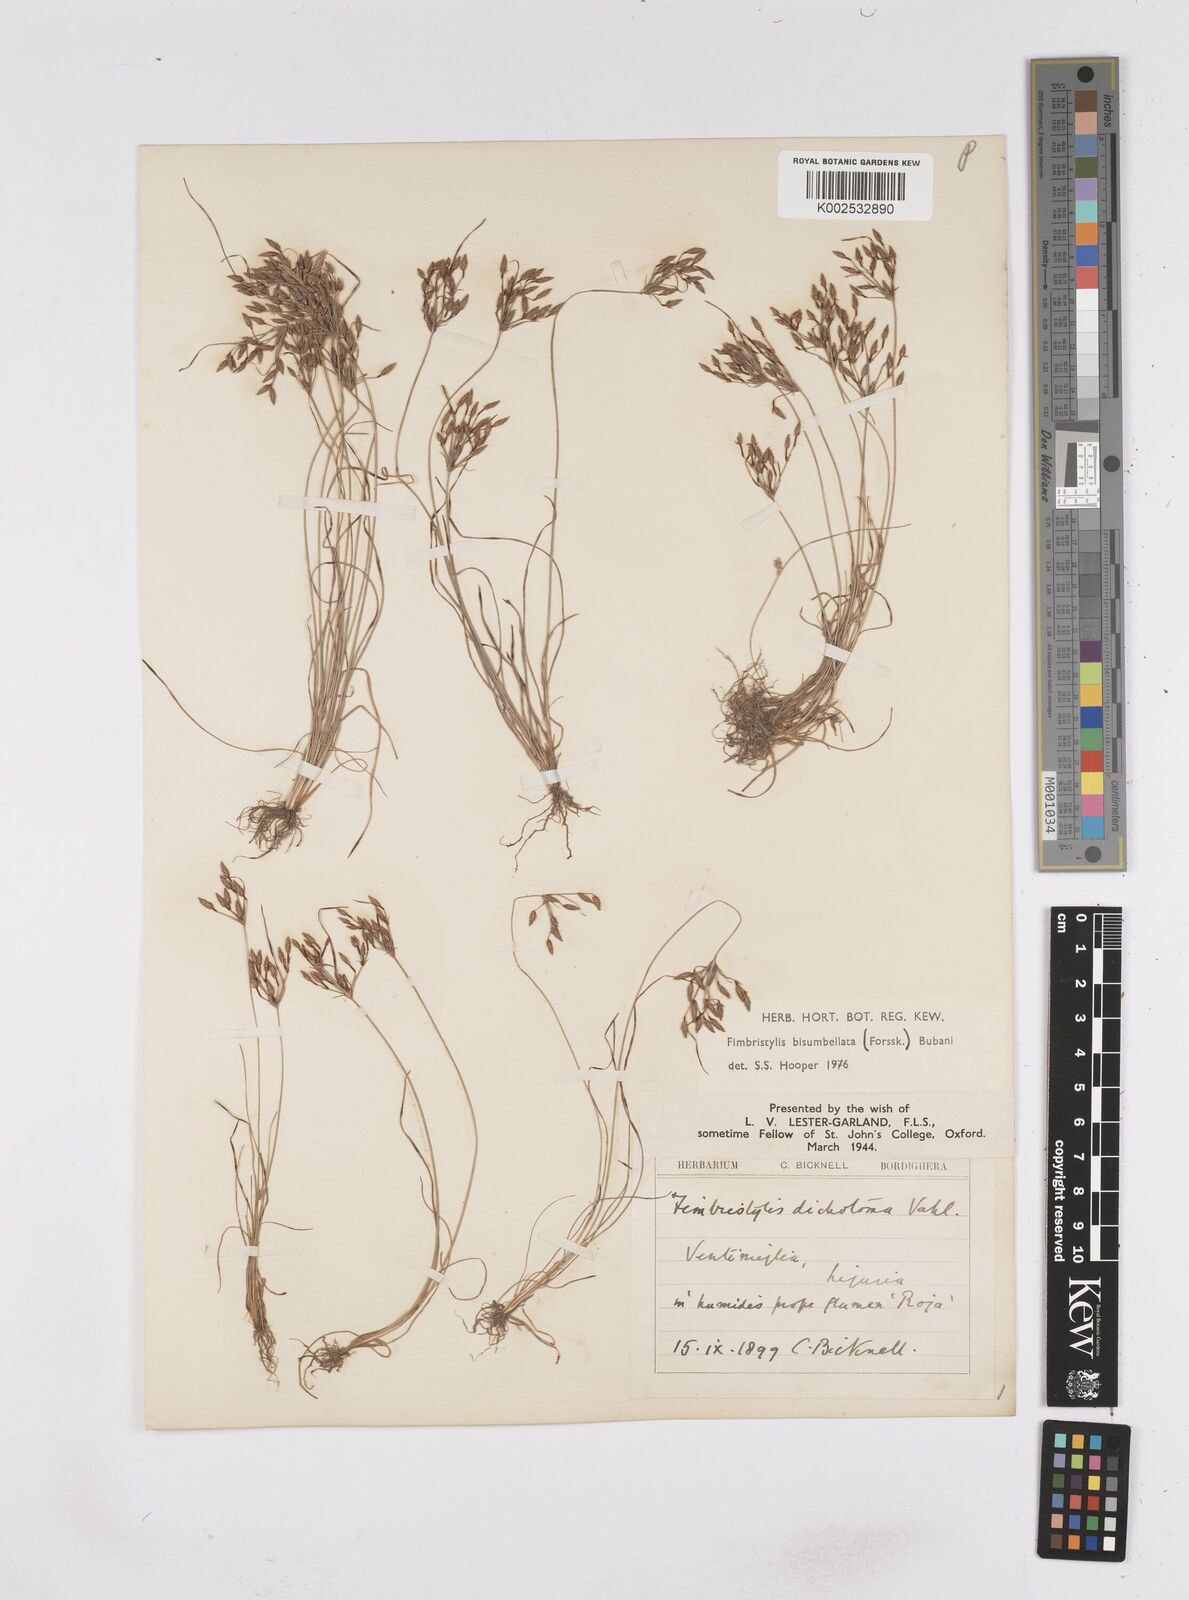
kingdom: Plantae
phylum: Tracheophyta
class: Liliopsida
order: Poales
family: Cyperaceae
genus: Fimbristylis
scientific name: Fimbristylis bisumbellata
